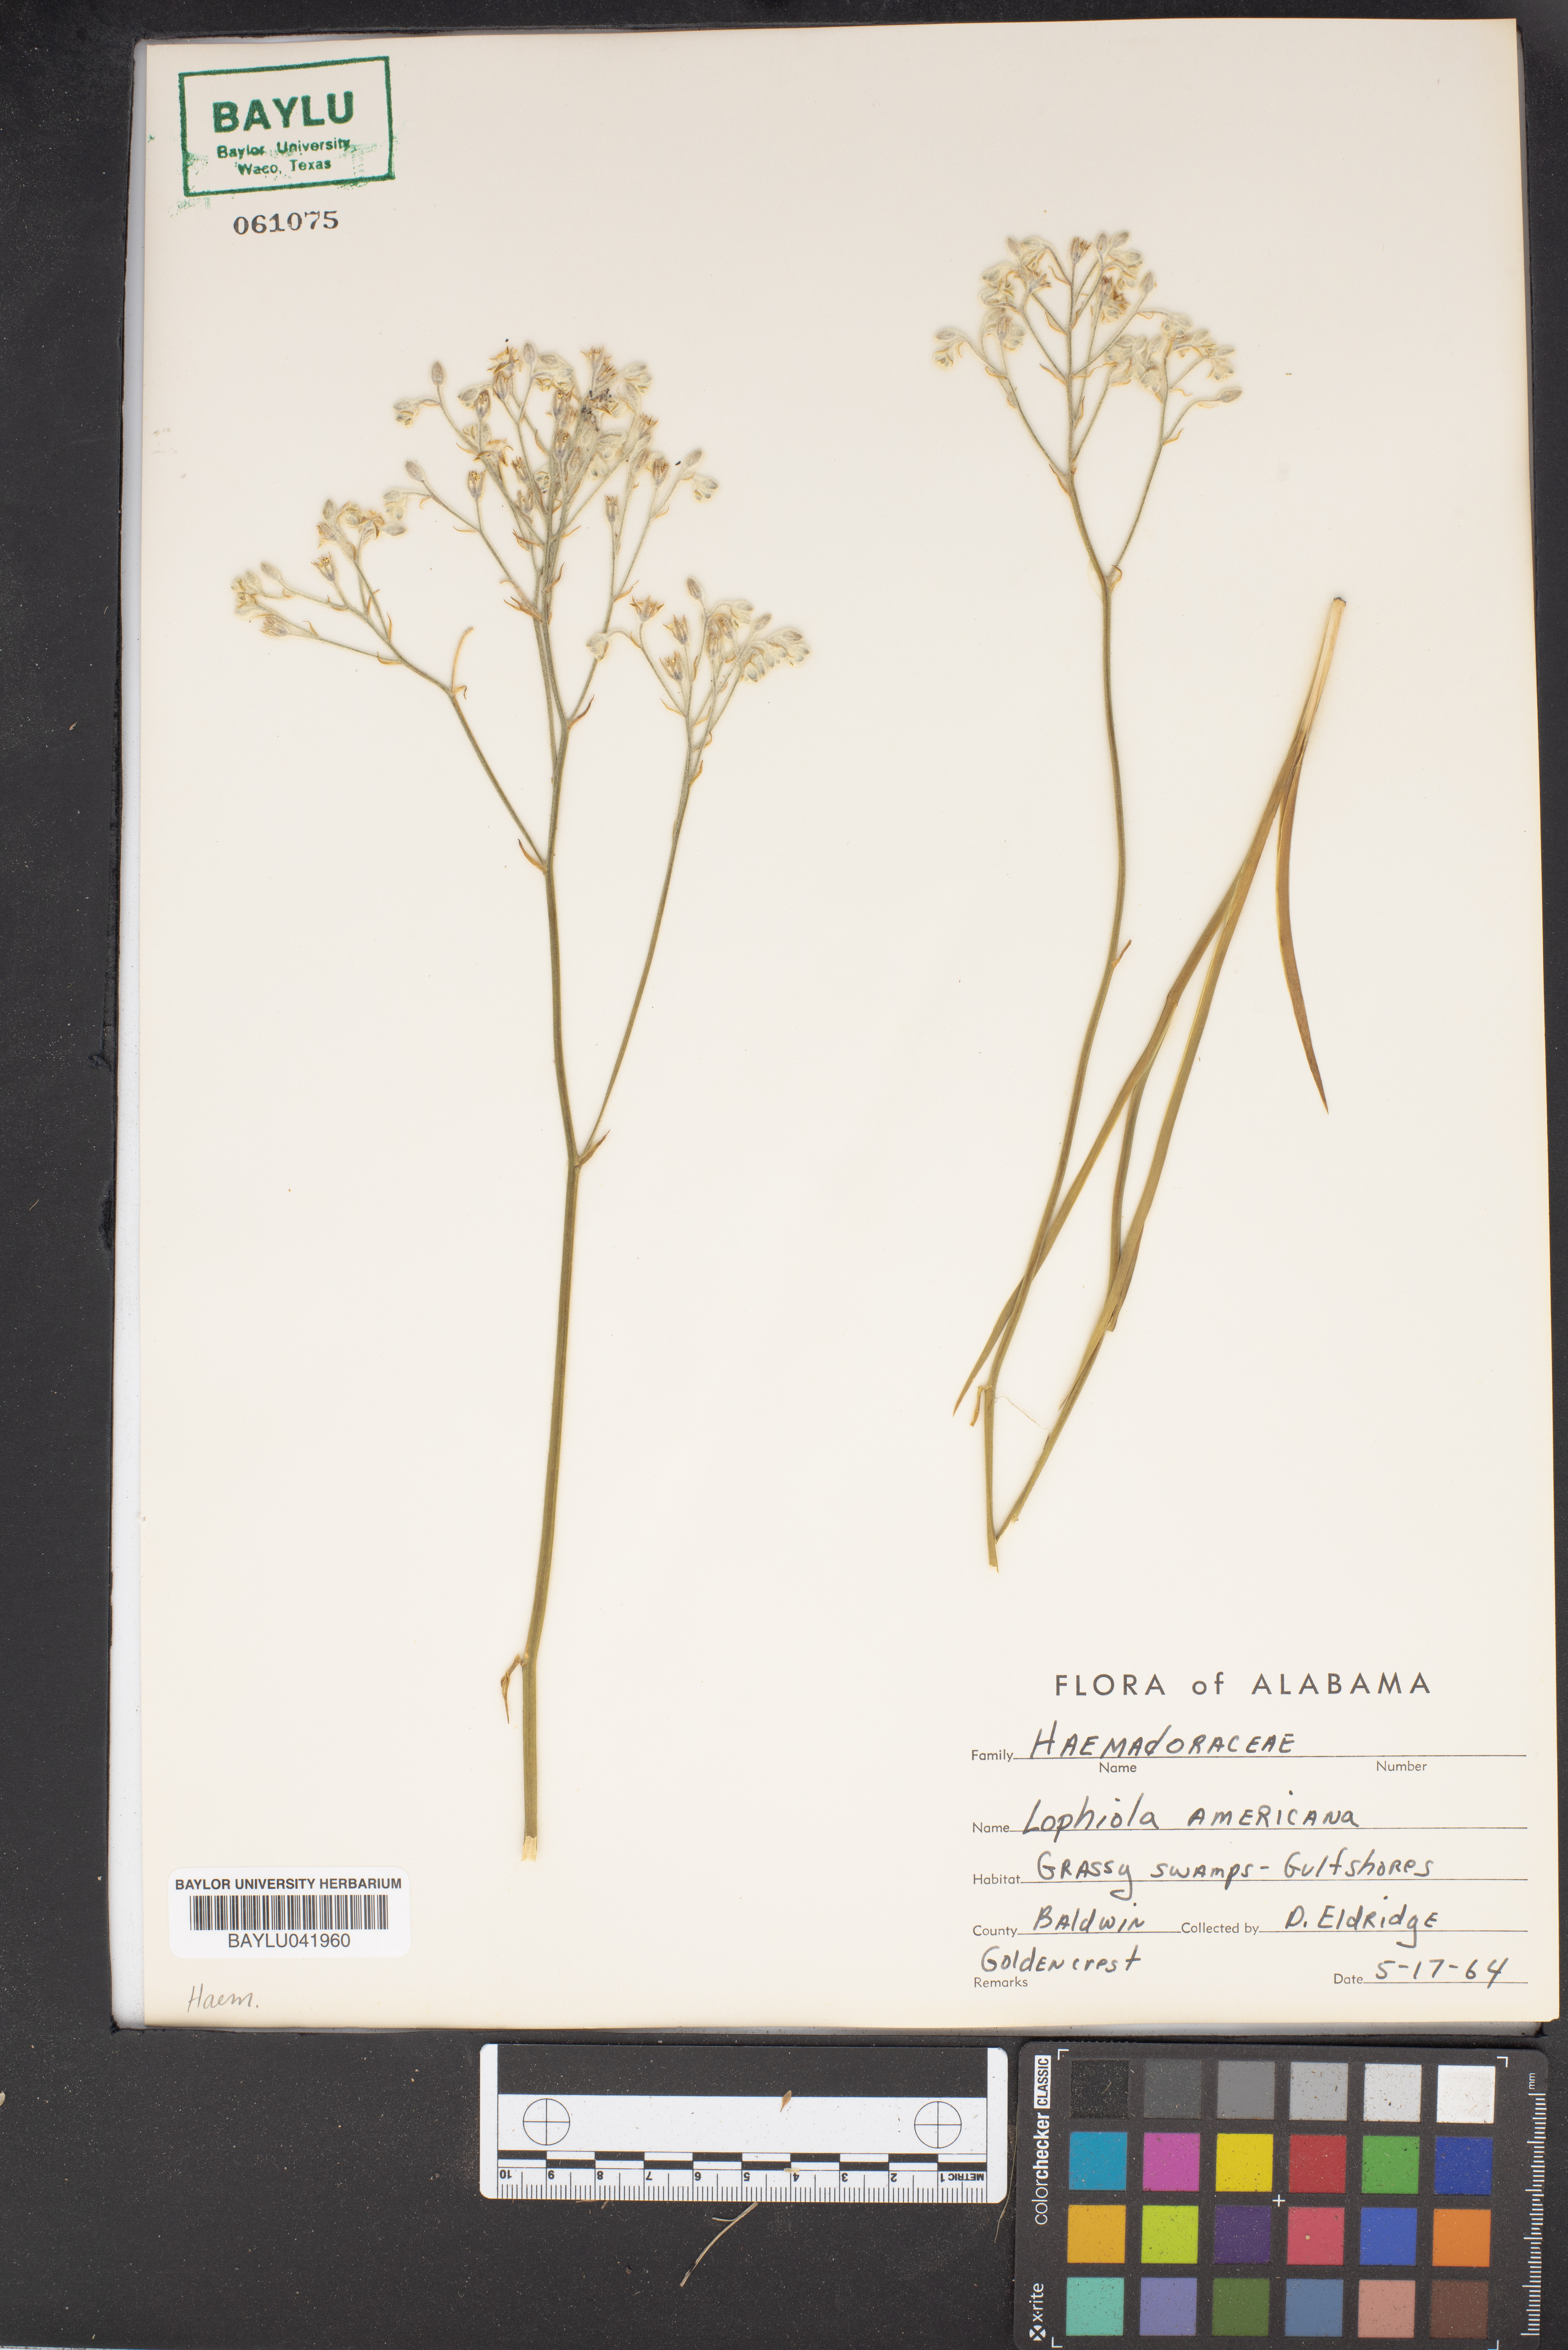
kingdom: Plantae
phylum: Tracheophyta
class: Liliopsida
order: Dioscoreales
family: Nartheciaceae
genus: Lophiola
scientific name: Lophiola aurea
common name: Golden-crest
